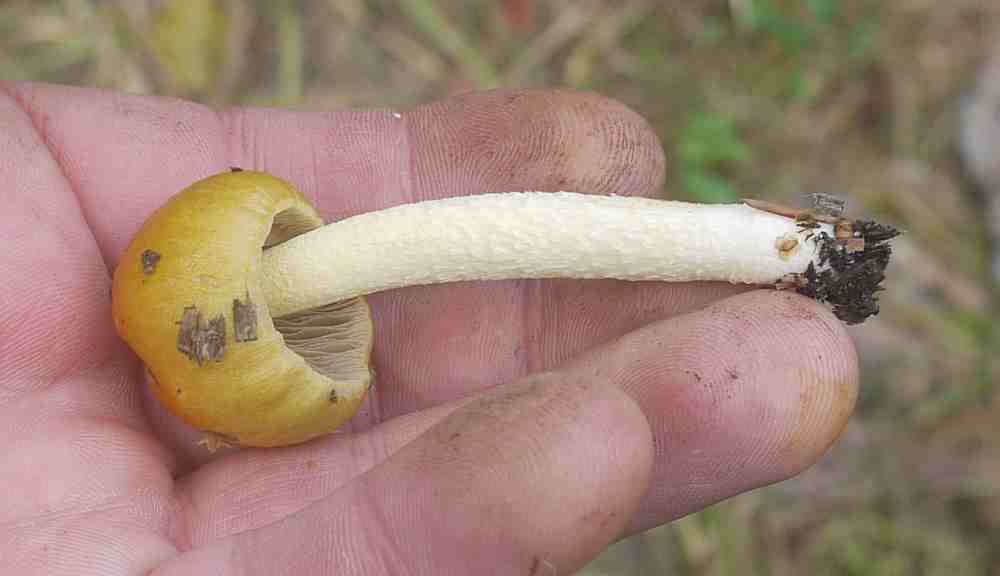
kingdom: Fungi
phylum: Basidiomycota
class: Agaricomycetes
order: Agaricales
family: Bolbitiaceae
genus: Bolbitius
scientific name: Bolbitius titubans
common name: almindelig gulhat
